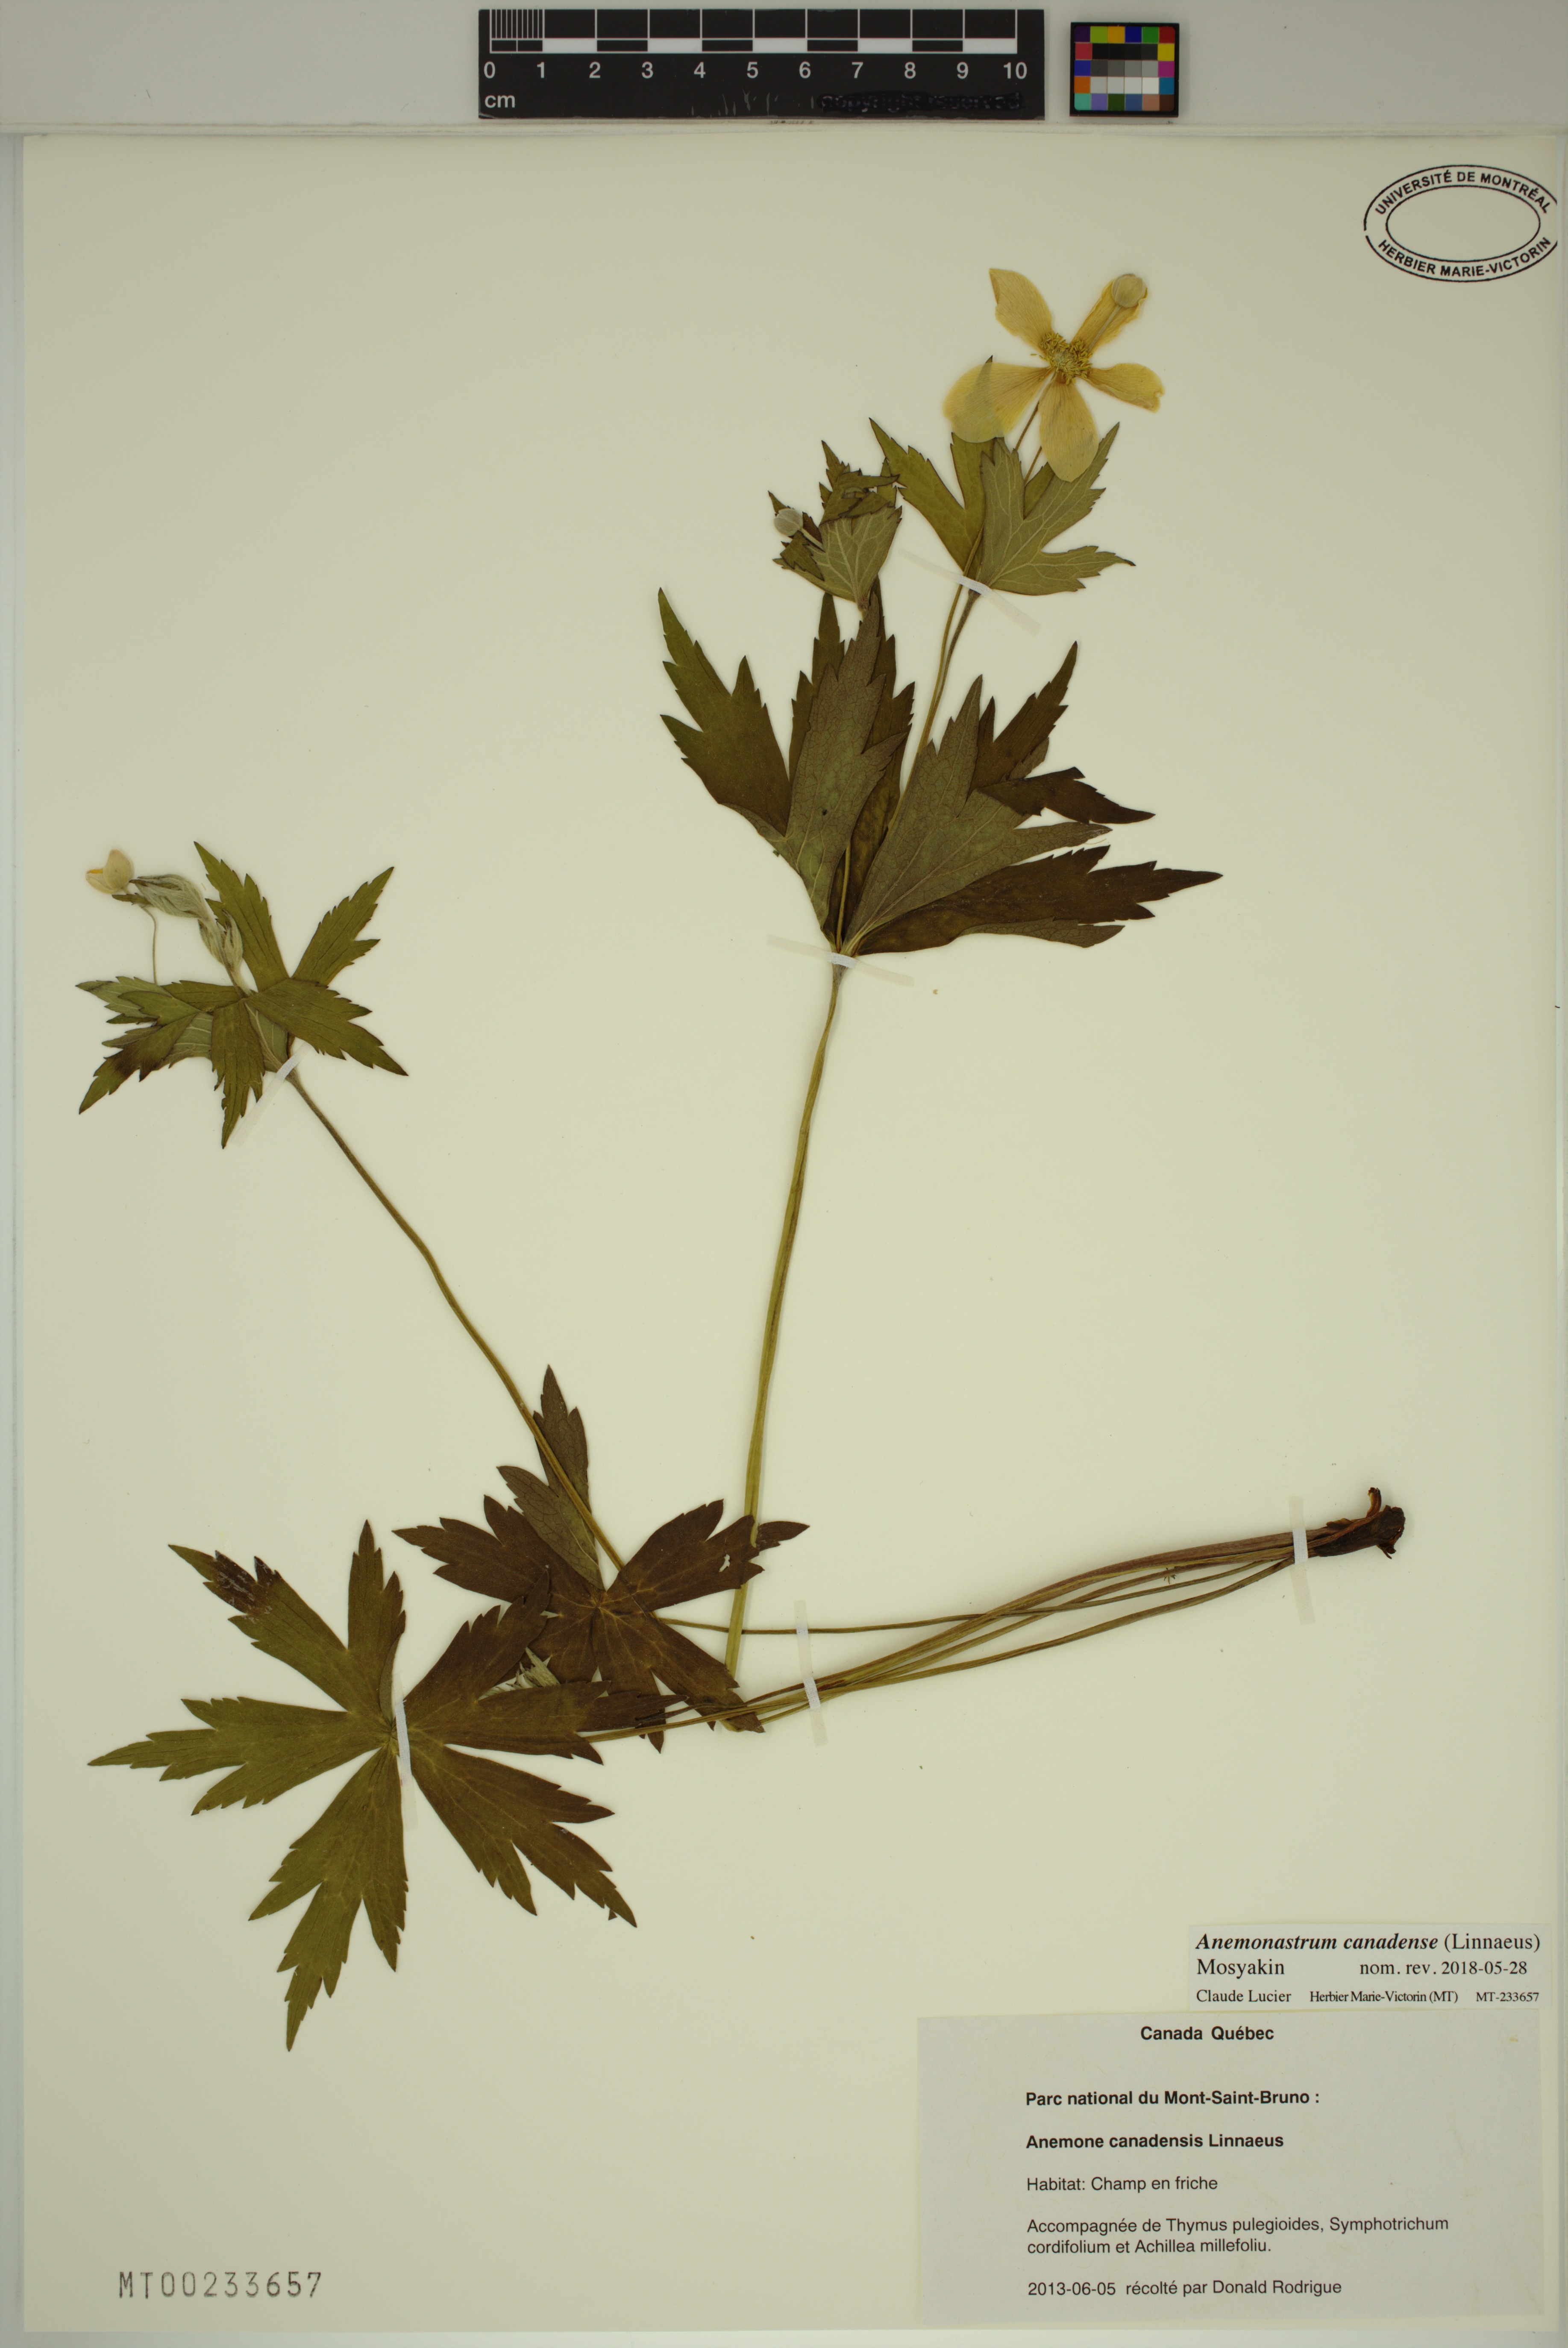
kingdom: Plantae
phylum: Tracheophyta
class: Magnoliopsida
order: Ranunculales
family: Ranunculaceae
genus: Anemonastrum
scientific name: Anemonastrum canadense
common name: Canada anemone
